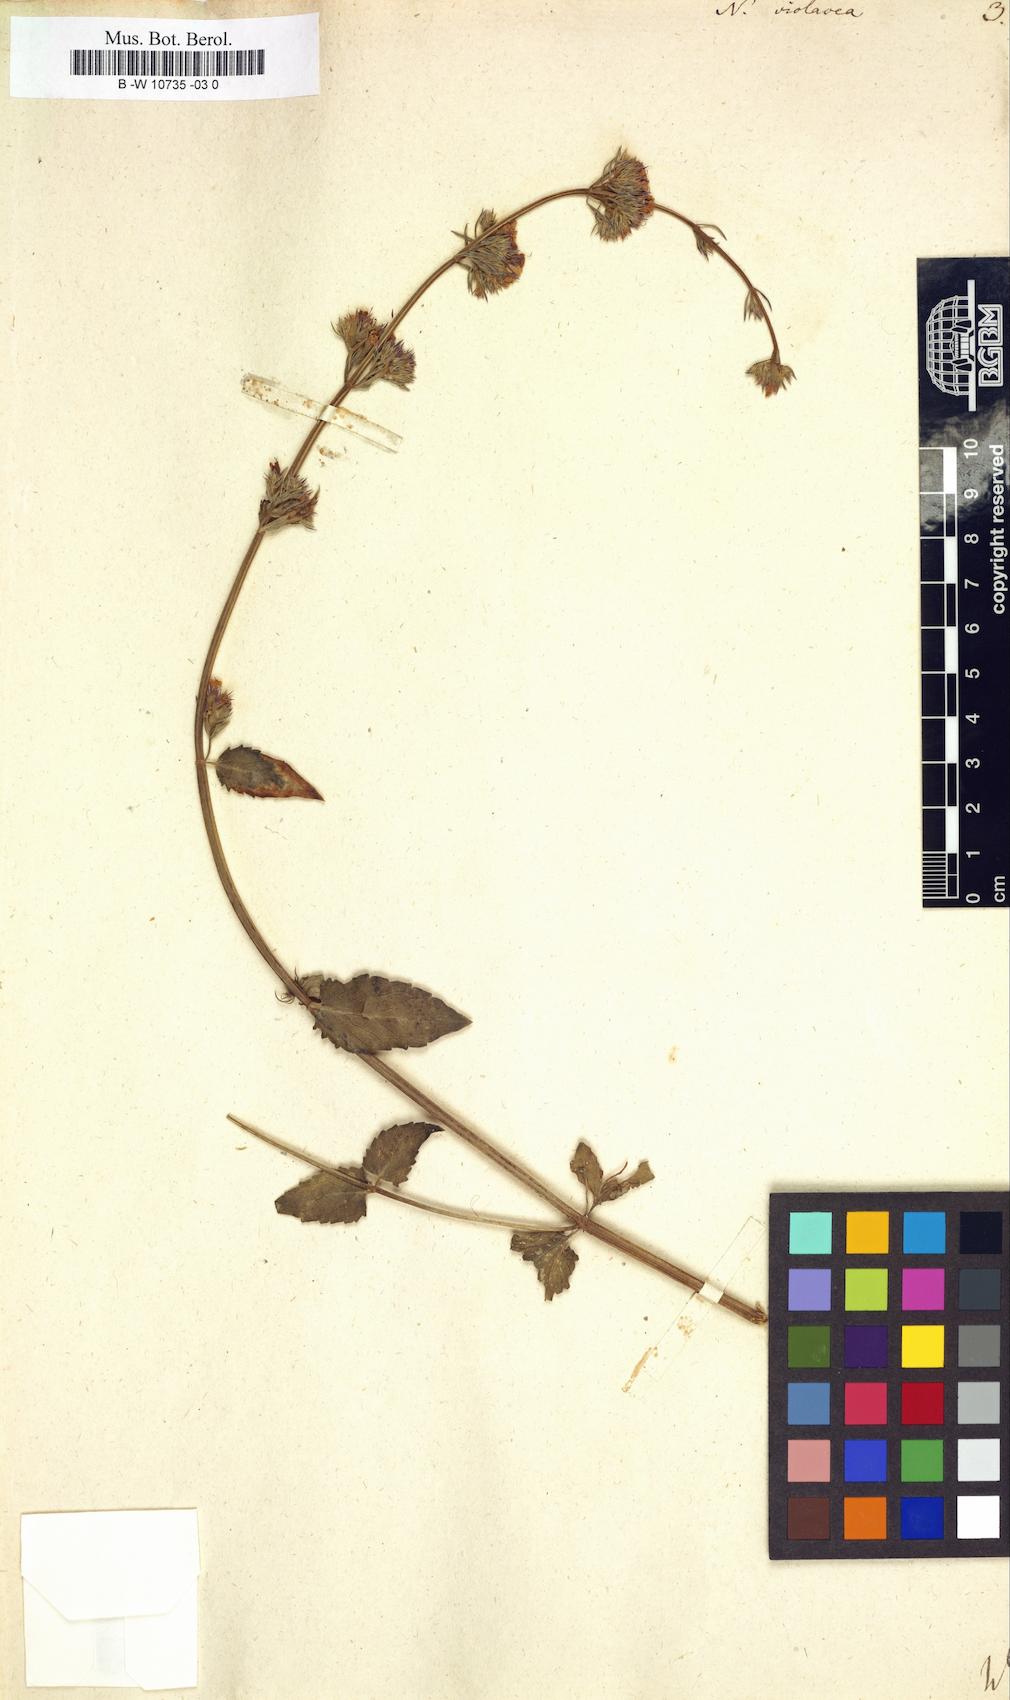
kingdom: Plantae
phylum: Tracheophyta
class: Magnoliopsida
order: Lamiales
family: Lamiaceae
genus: Nepeta
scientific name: Nepeta nuda
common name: Hairless catmint
